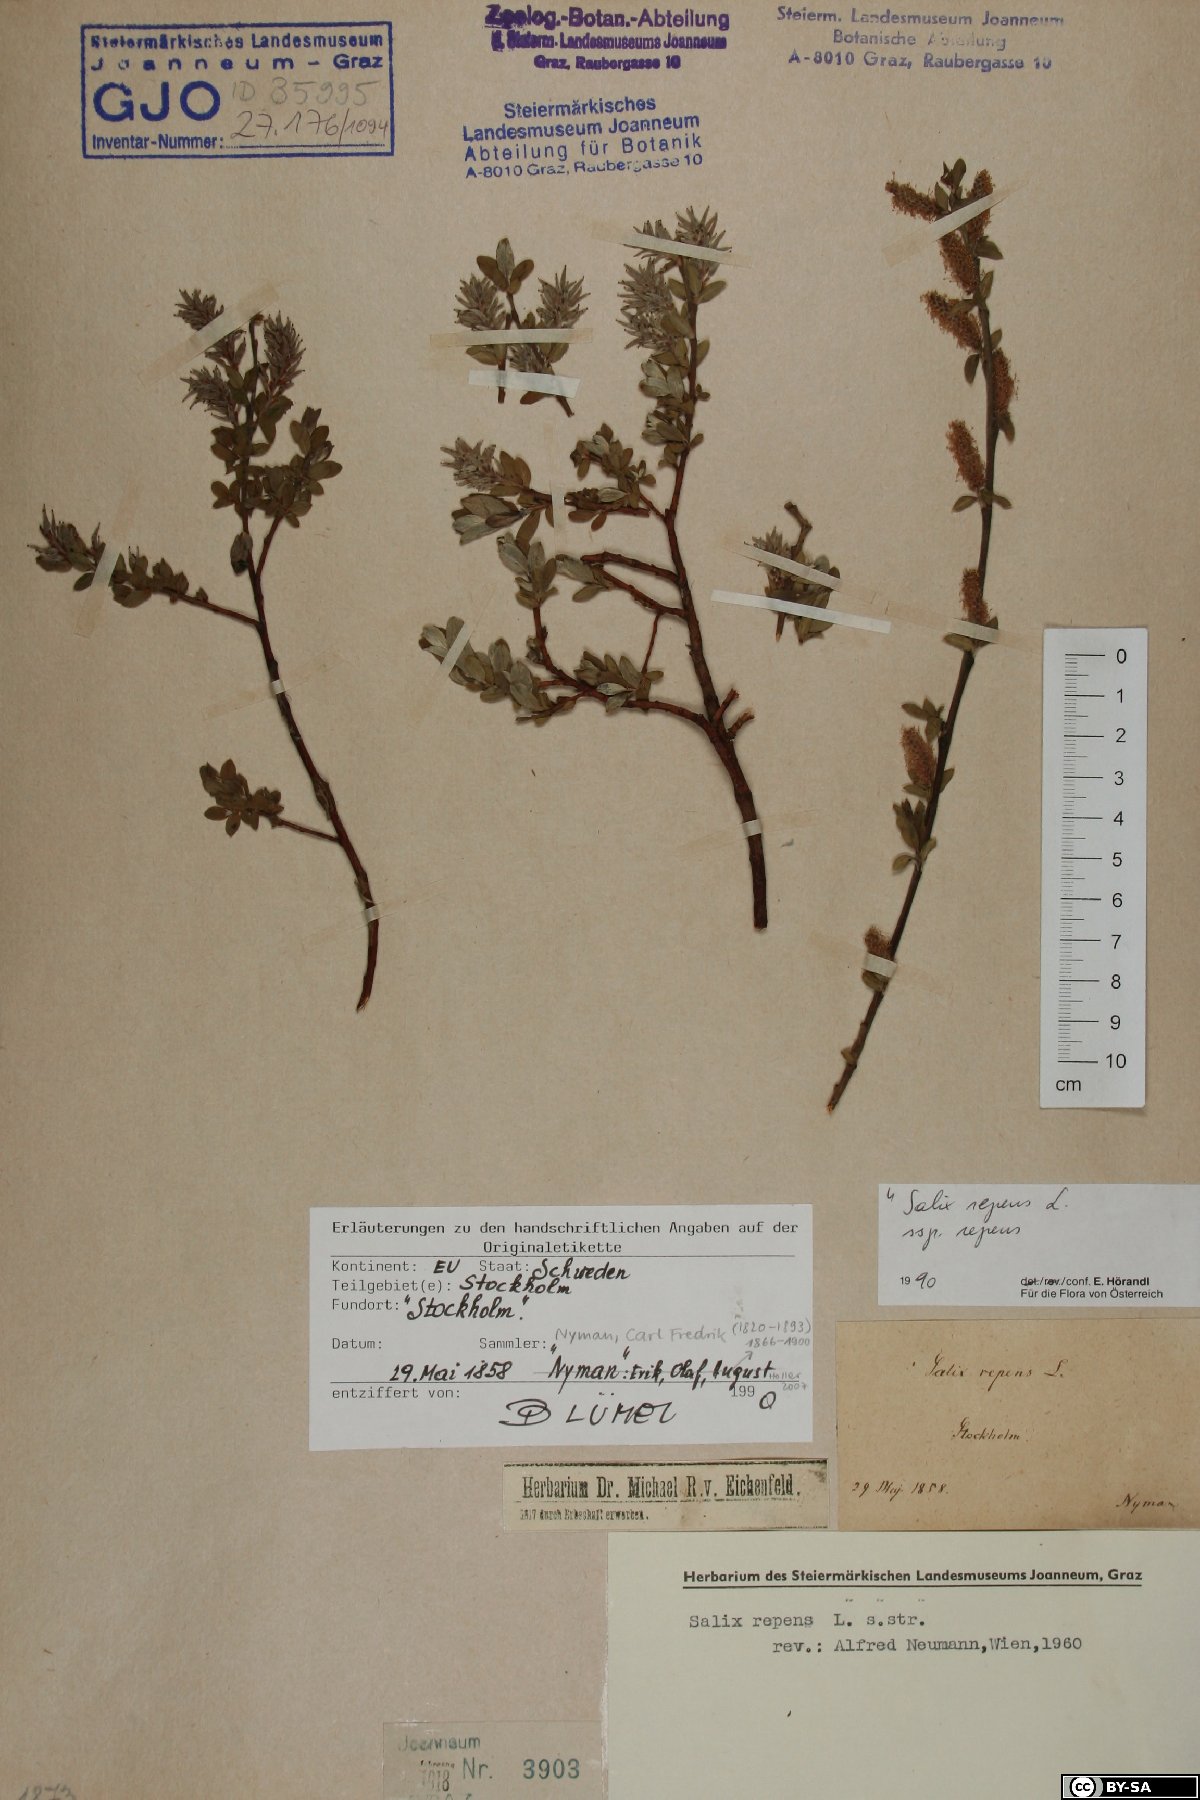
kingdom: Plantae
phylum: Tracheophyta
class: Magnoliopsida
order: Malpighiales
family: Salicaceae
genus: Salix
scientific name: Salix repens
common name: Creeping willow
